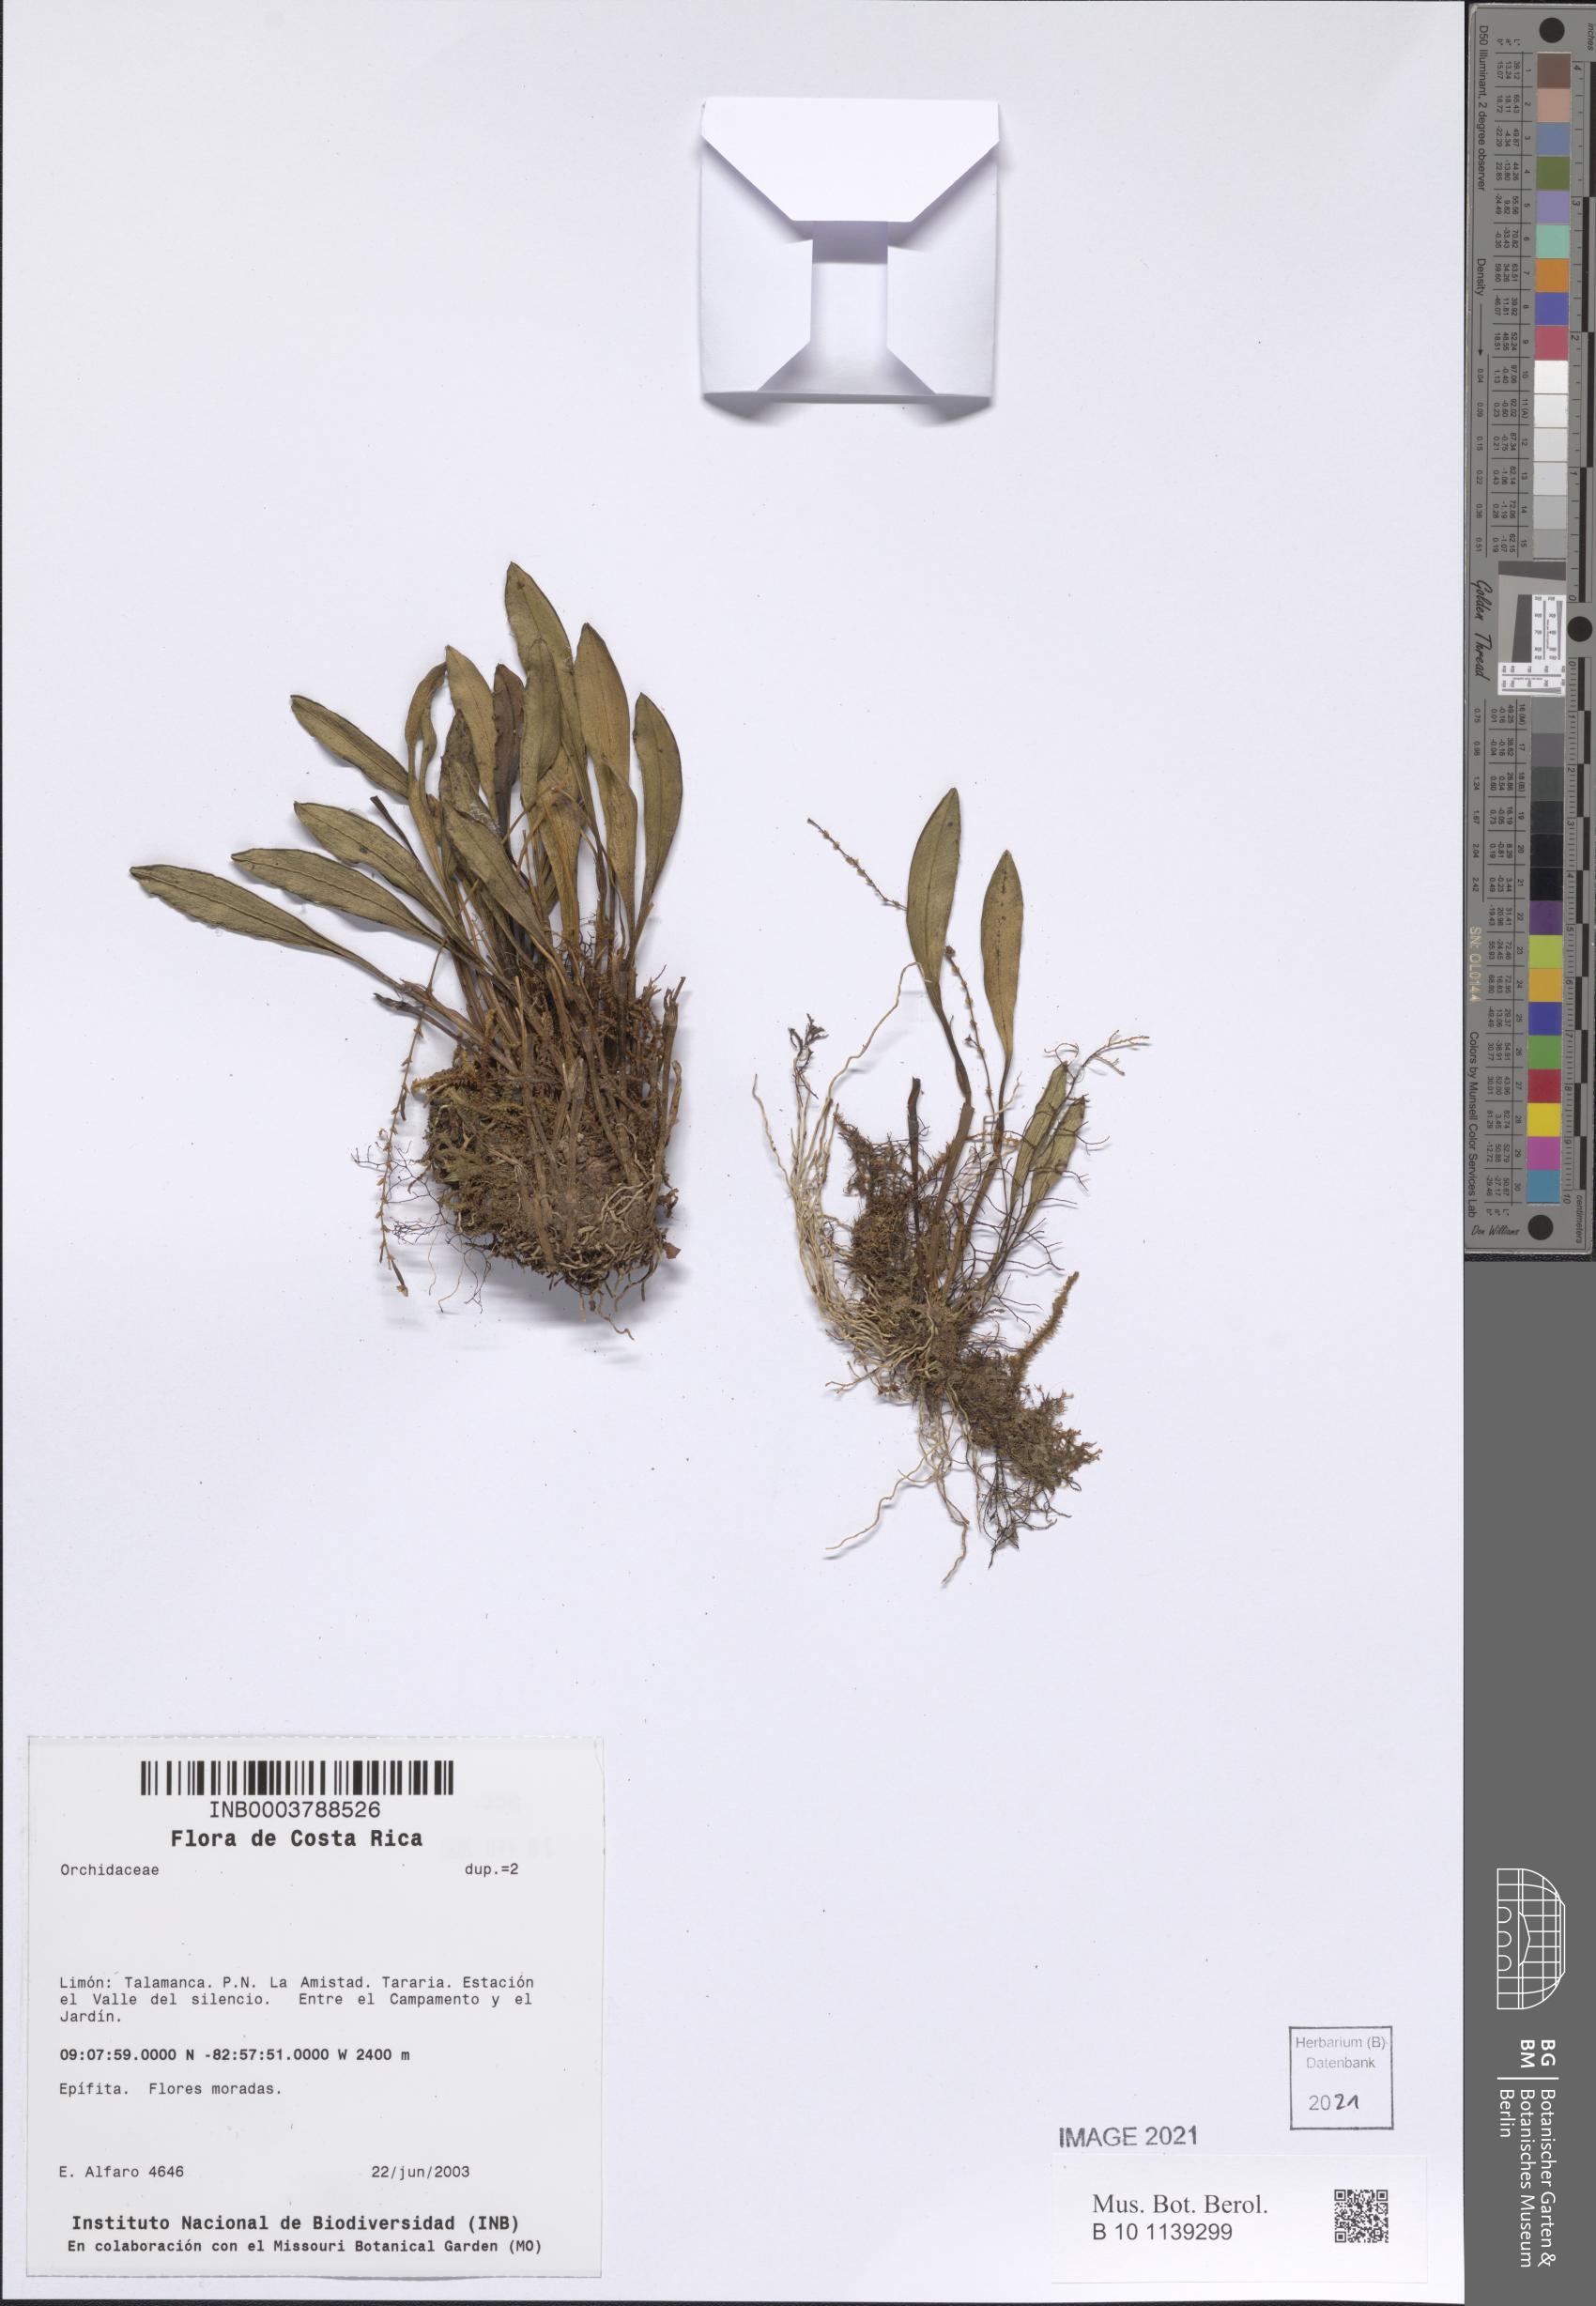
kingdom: Plantae
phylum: Tracheophyta
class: Liliopsida
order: Asparagales
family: Orchidaceae
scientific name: Orchidaceae
